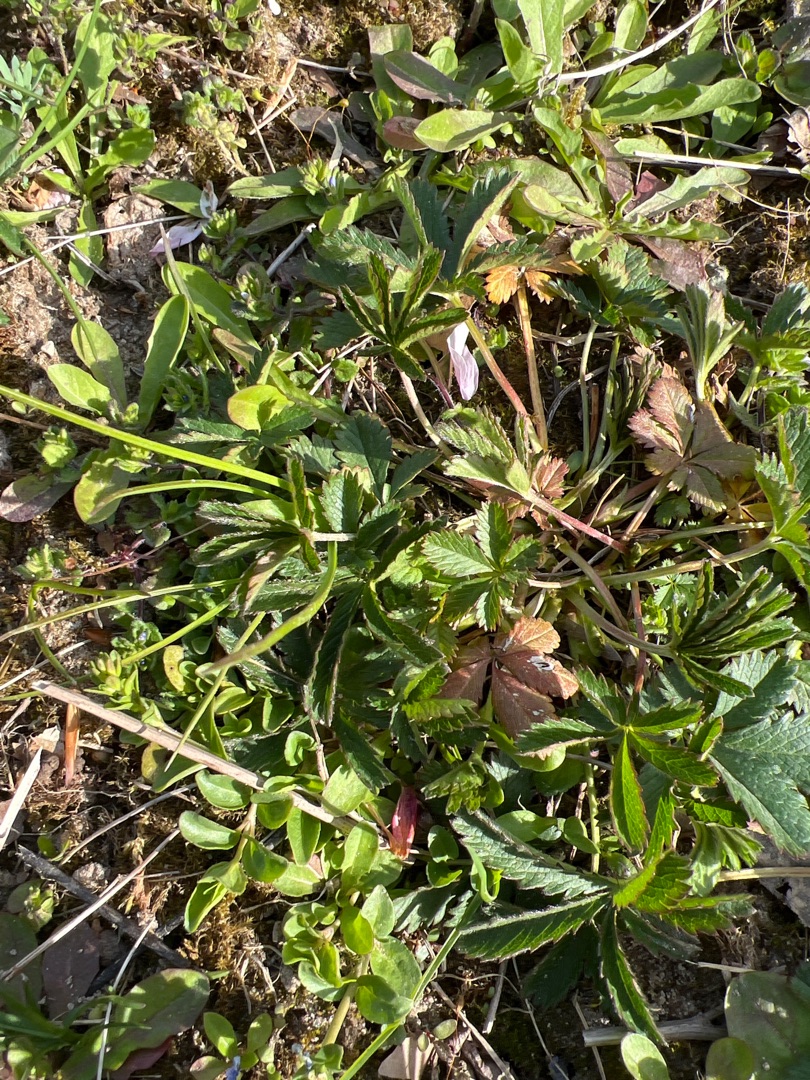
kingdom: Plantae
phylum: Tracheophyta
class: Magnoliopsida
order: Rosales
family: Rosaceae
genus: Potentilla
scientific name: Potentilla reptans
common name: Krybende potentil
